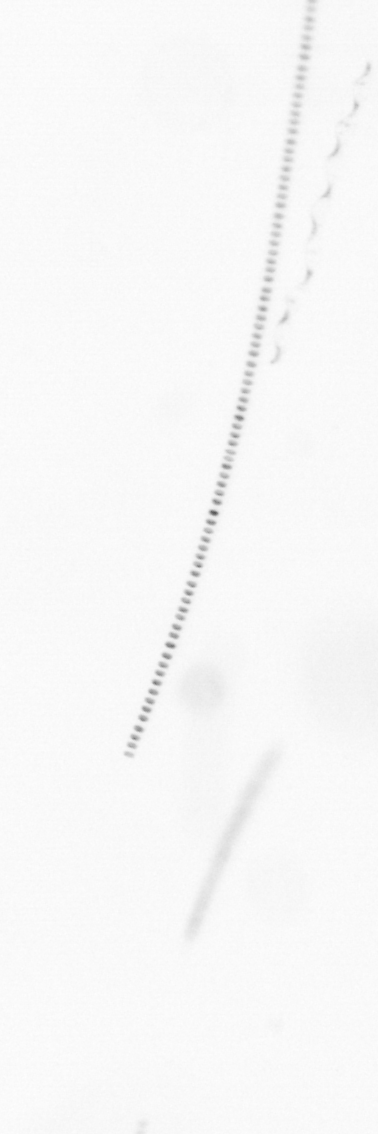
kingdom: Chromista
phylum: Ochrophyta
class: Bacillariophyceae
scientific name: Bacillariophyceae
